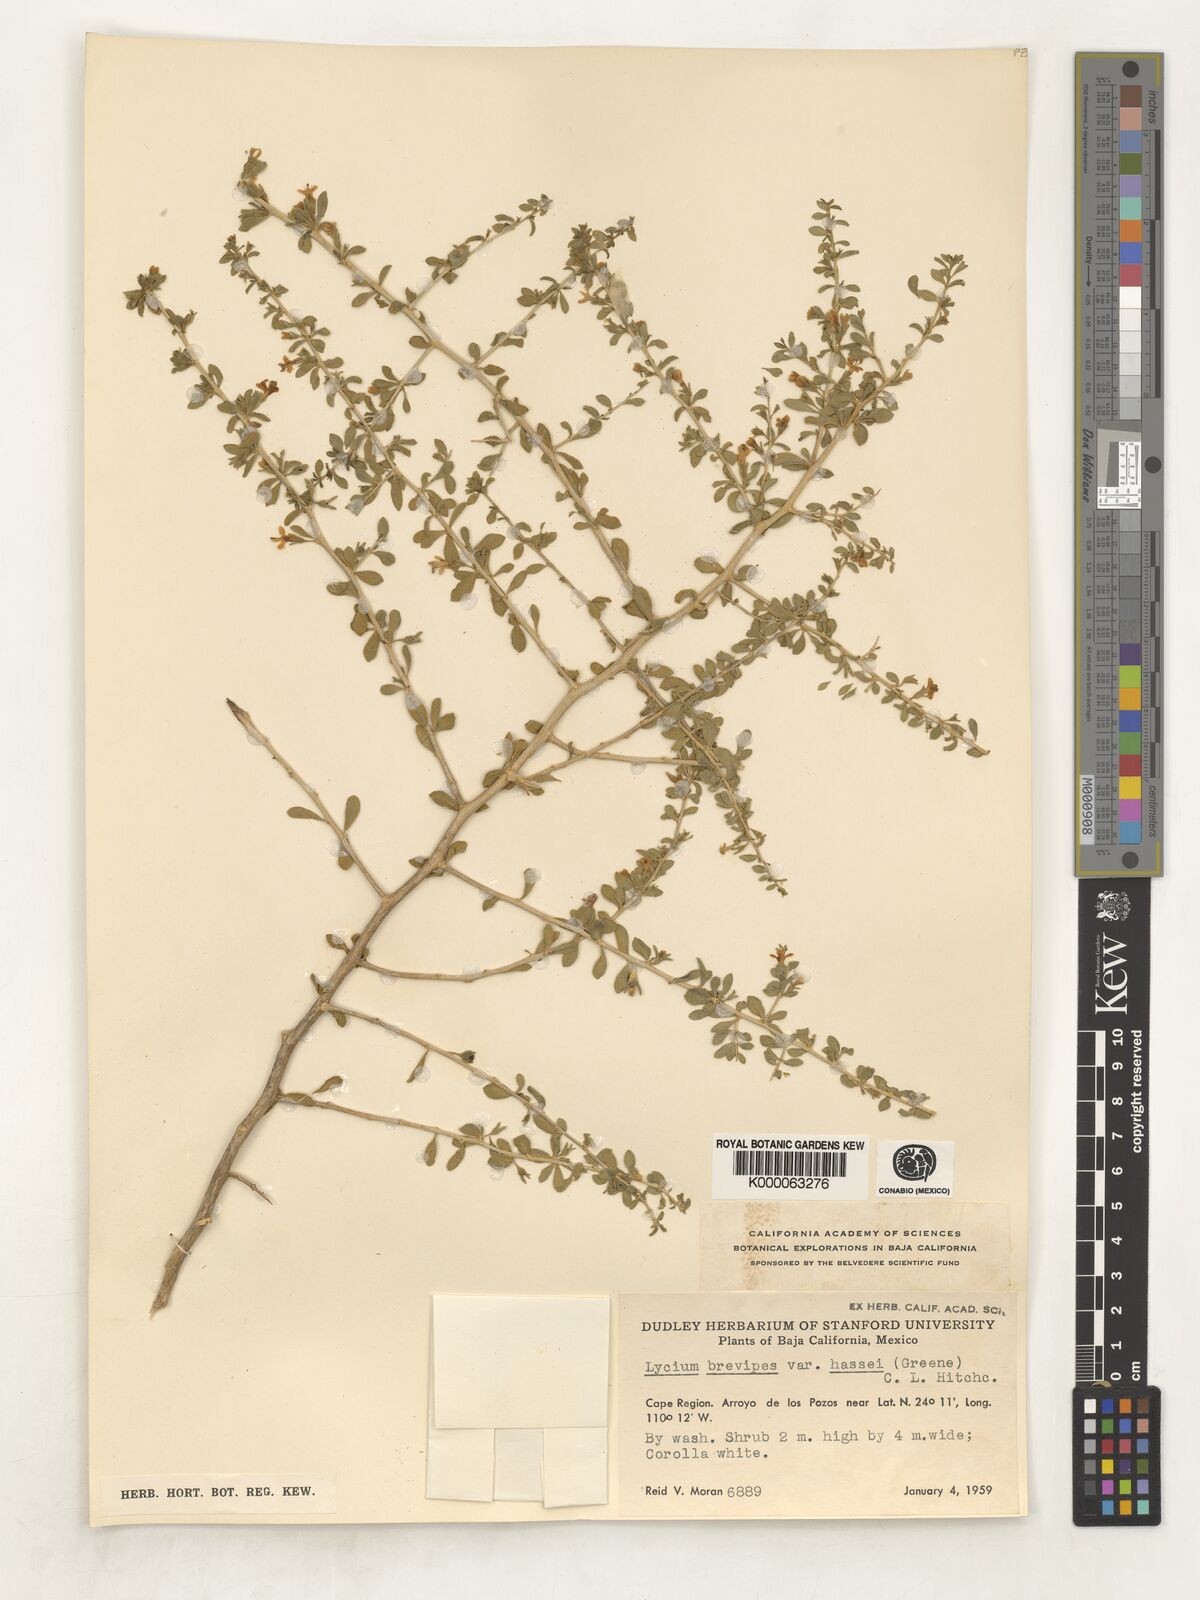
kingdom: Plantae
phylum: Tracheophyta
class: Magnoliopsida
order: Solanales
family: Solanaceae
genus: Lycium
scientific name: Lycium brevipes
